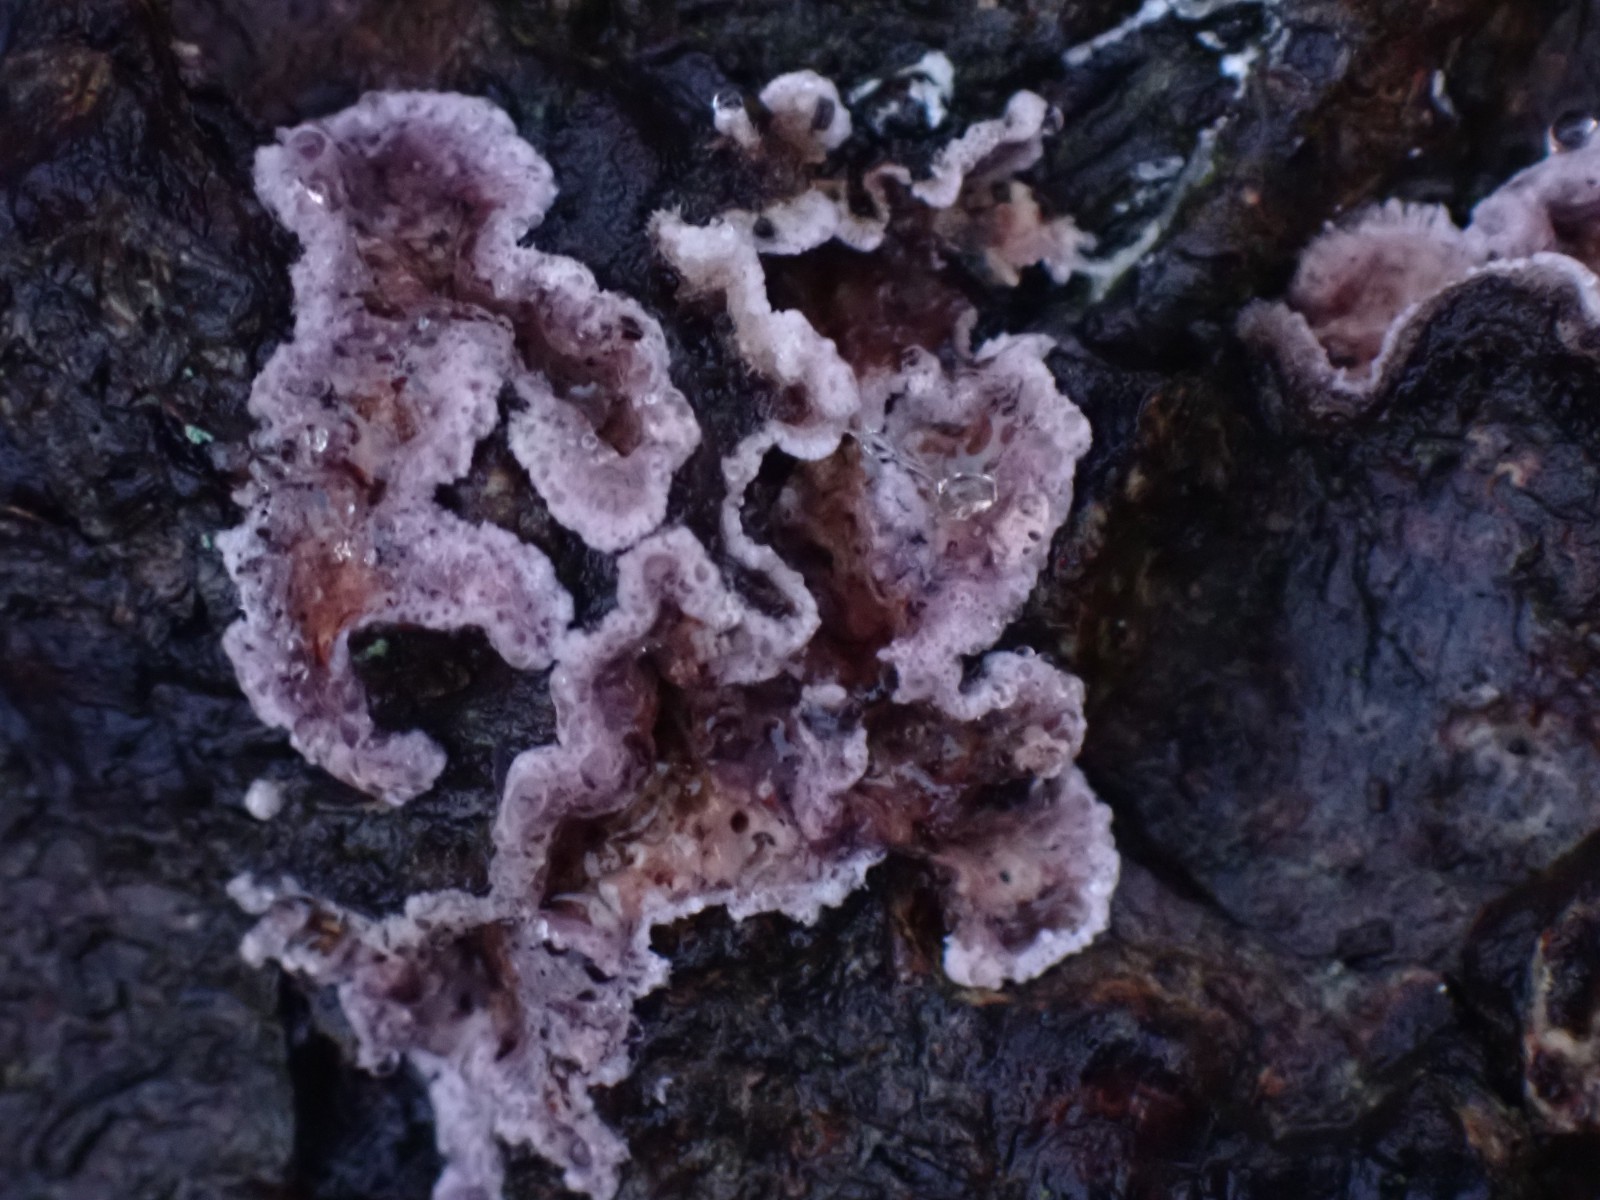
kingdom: Fungi
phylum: Basidiomycota
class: Agaricomycetes
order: Agaricales
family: Cyphellaceae
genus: Chondrostereum
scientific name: Chondrostereum purpureum
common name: purpurlædersvamp
